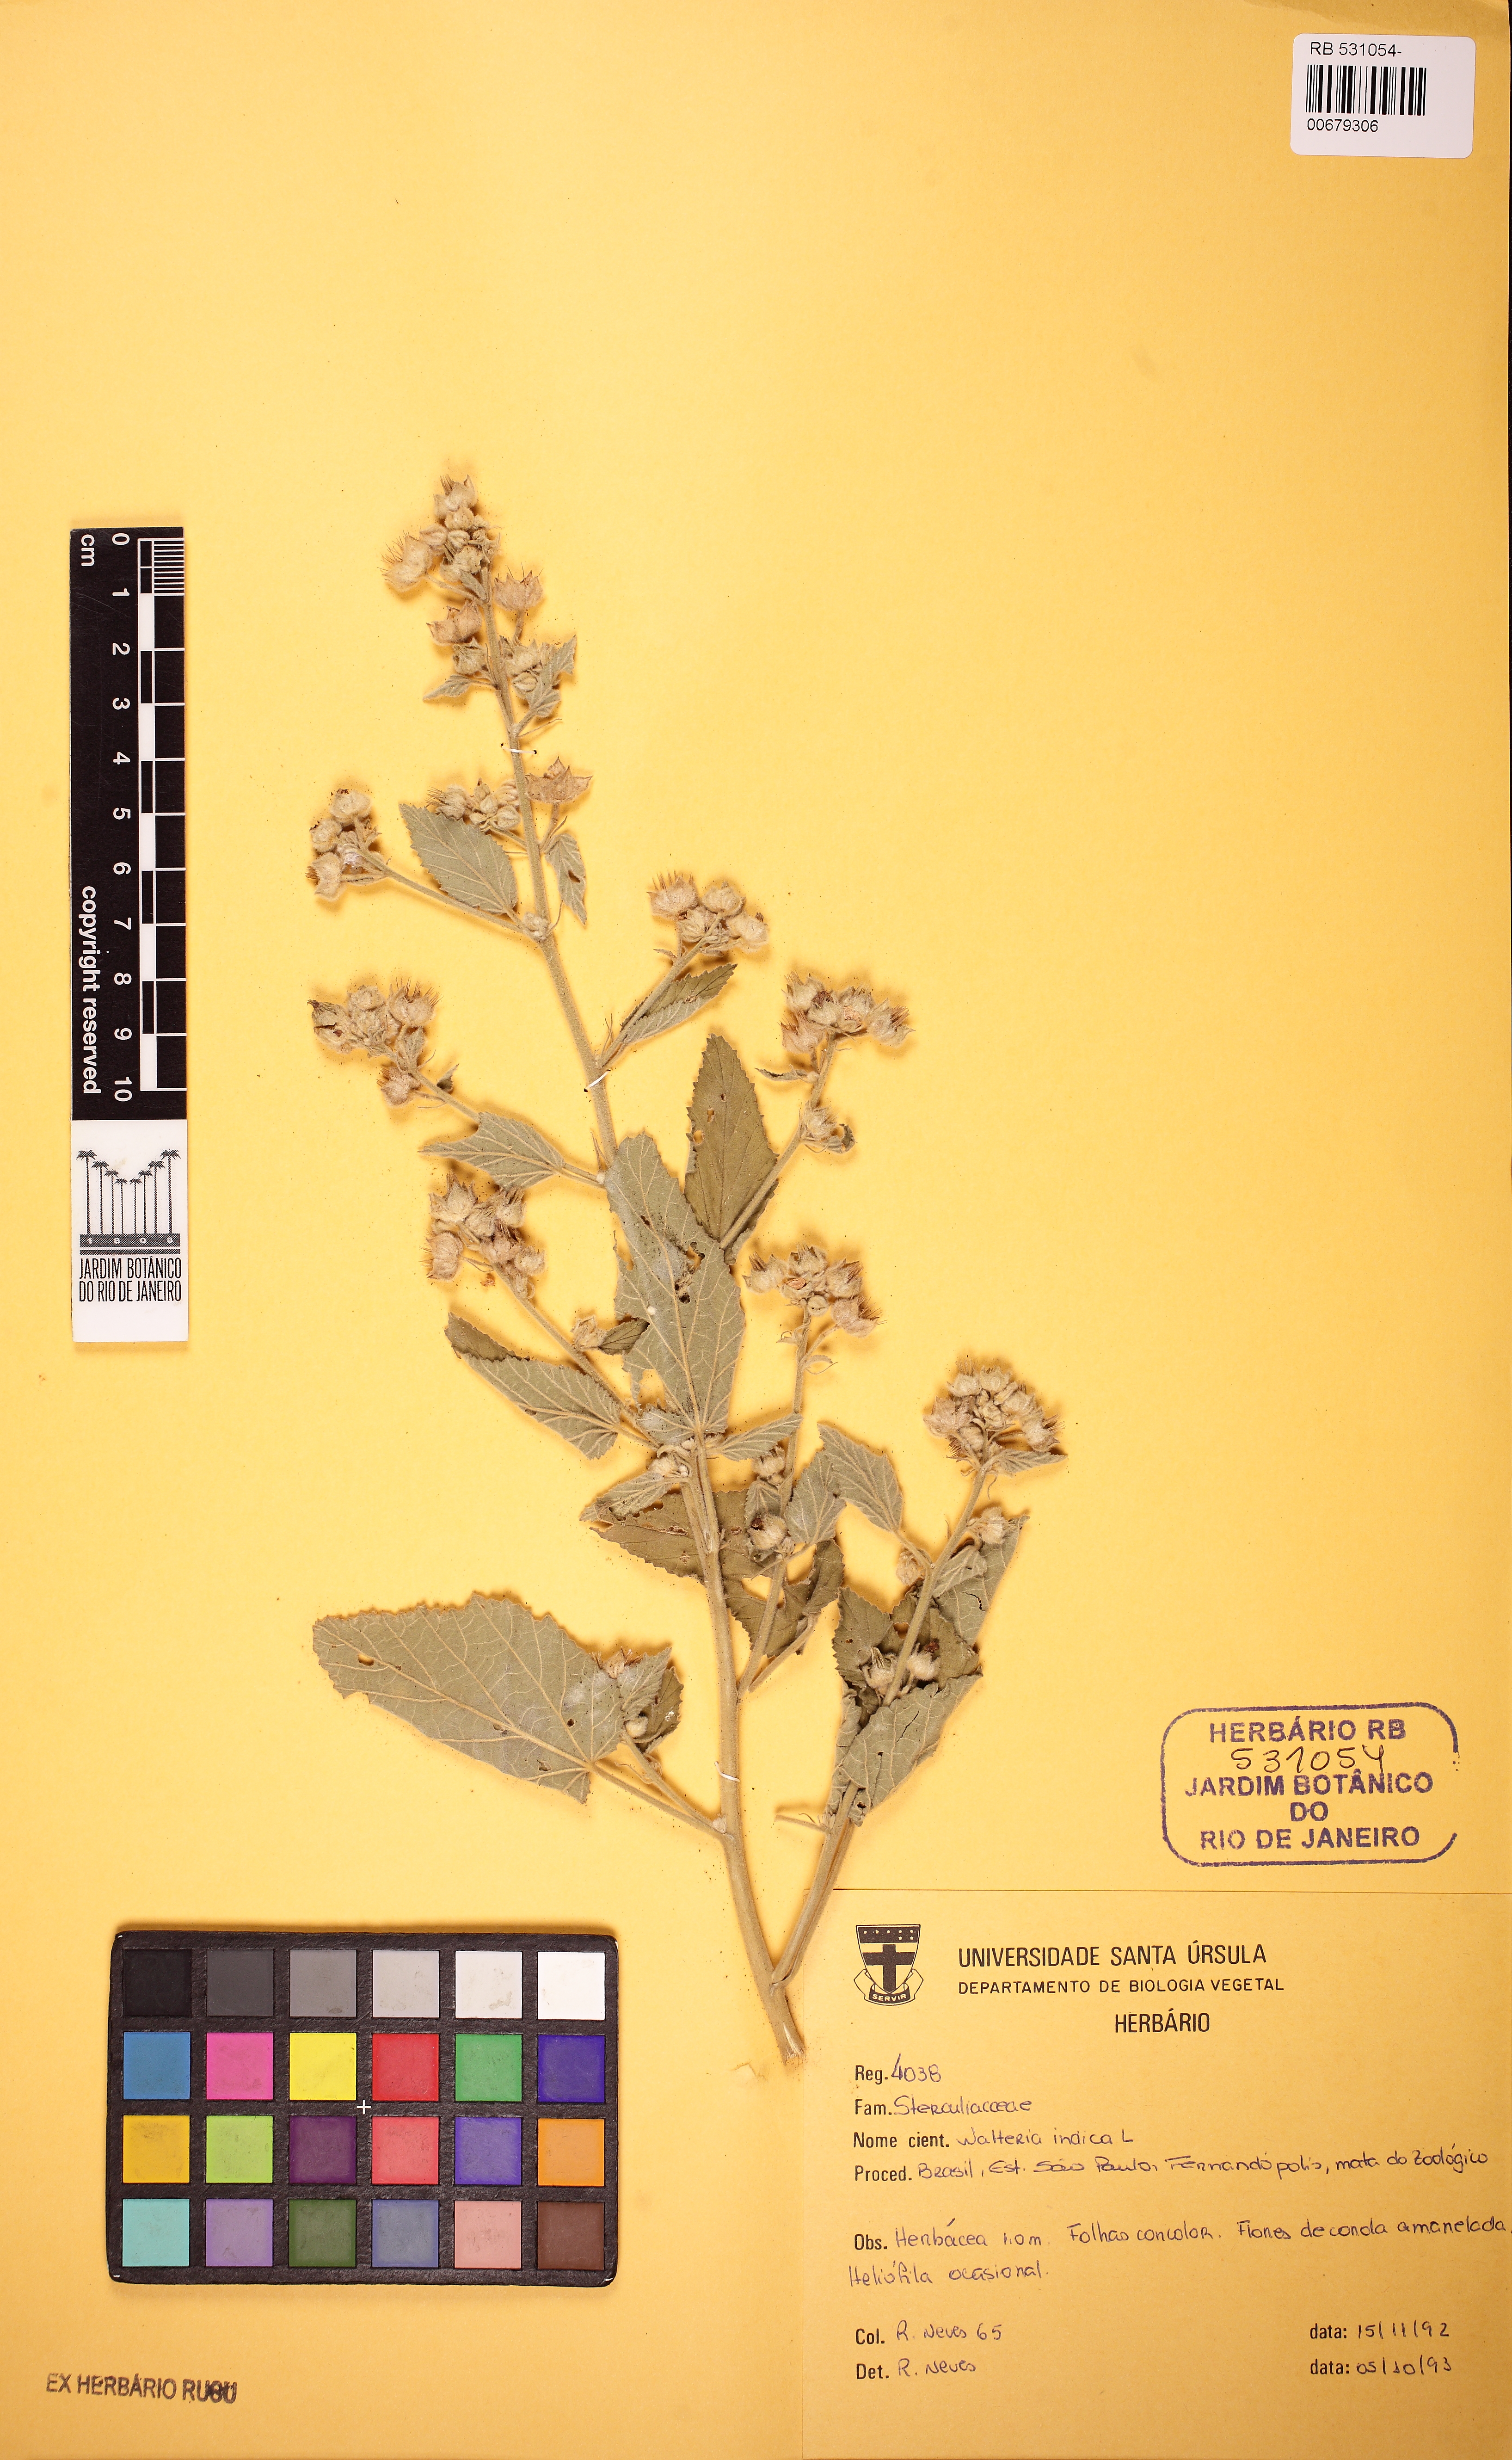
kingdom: Plantae
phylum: Tracheophyta
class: Magnoliopsida
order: Malvales
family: Malvaceae
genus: Sida
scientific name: Sida cordifolia
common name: Ilima
